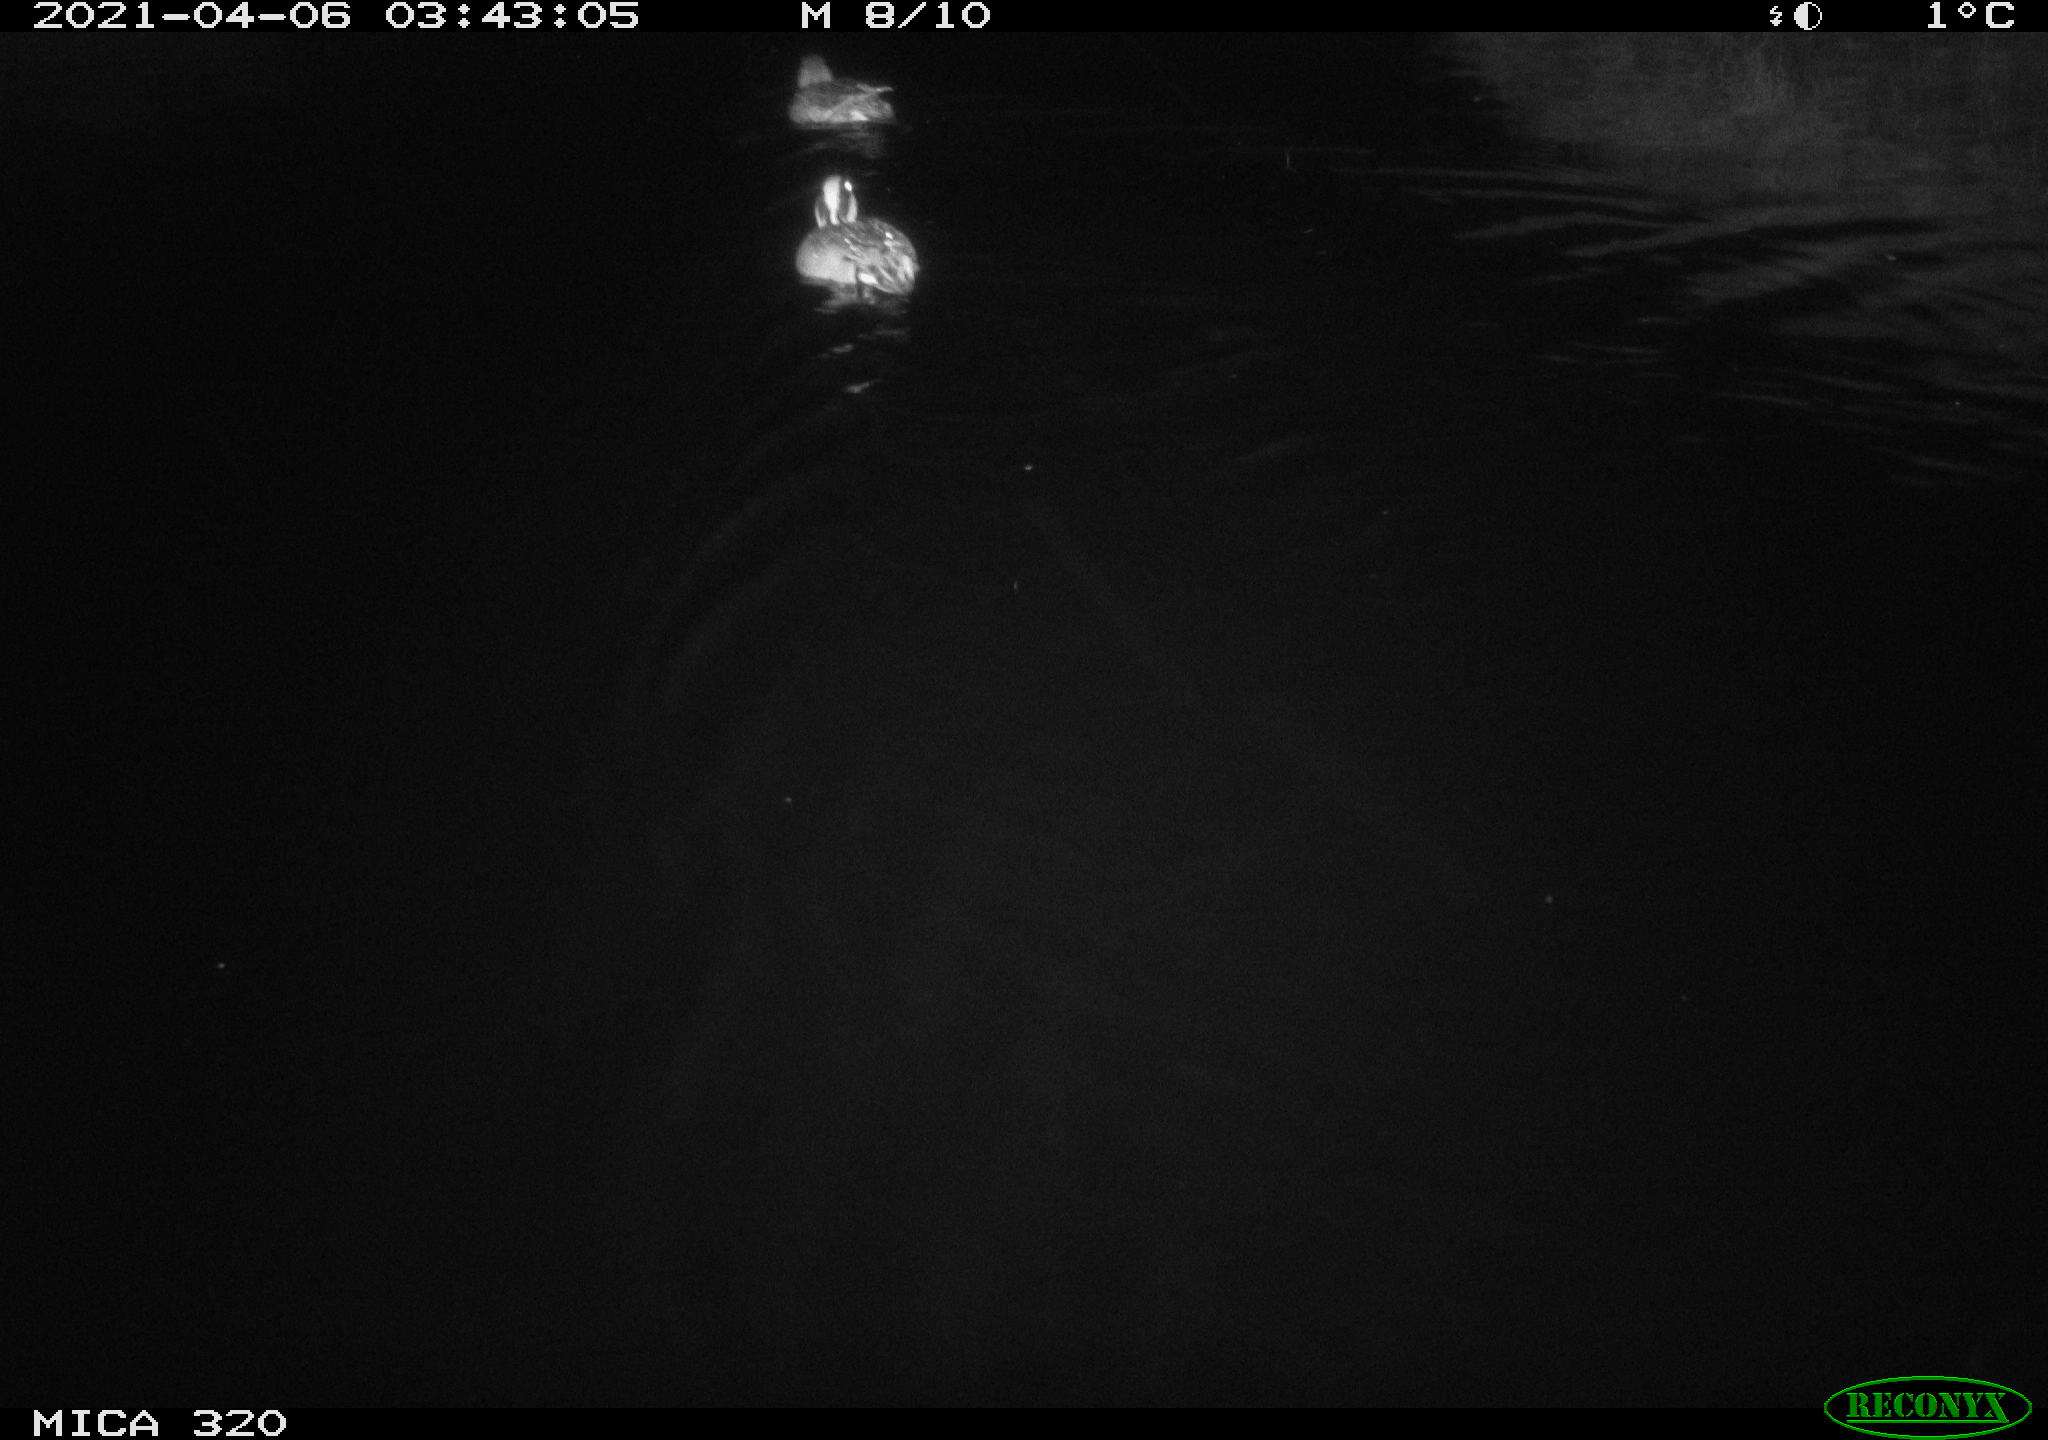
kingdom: Animalia
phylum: Chordata
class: Aves
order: Anseriformes
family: Anatidae
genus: Anas
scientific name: Anas platyrhynchos
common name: Mallard
